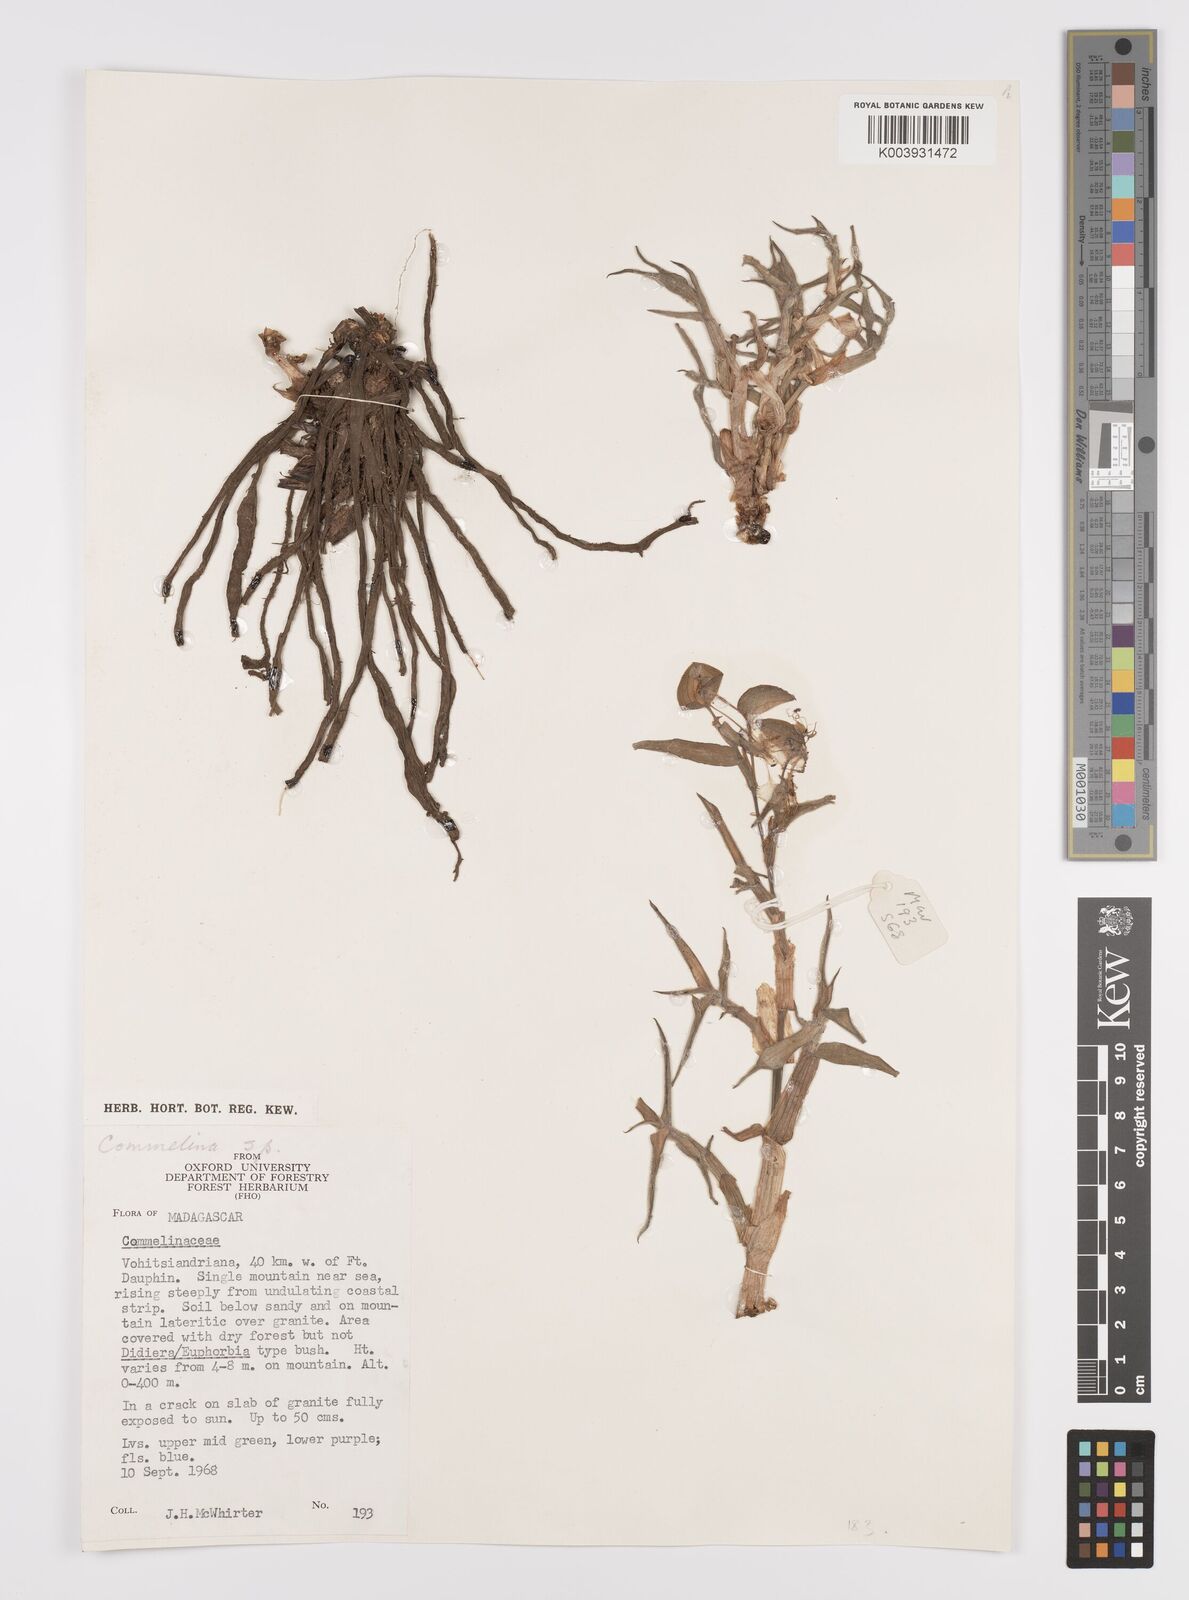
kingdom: Plantae
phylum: Tracheophyta
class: Liliopsida
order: Commelinales
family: Commelinaceae
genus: Commelina
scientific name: Commelina
